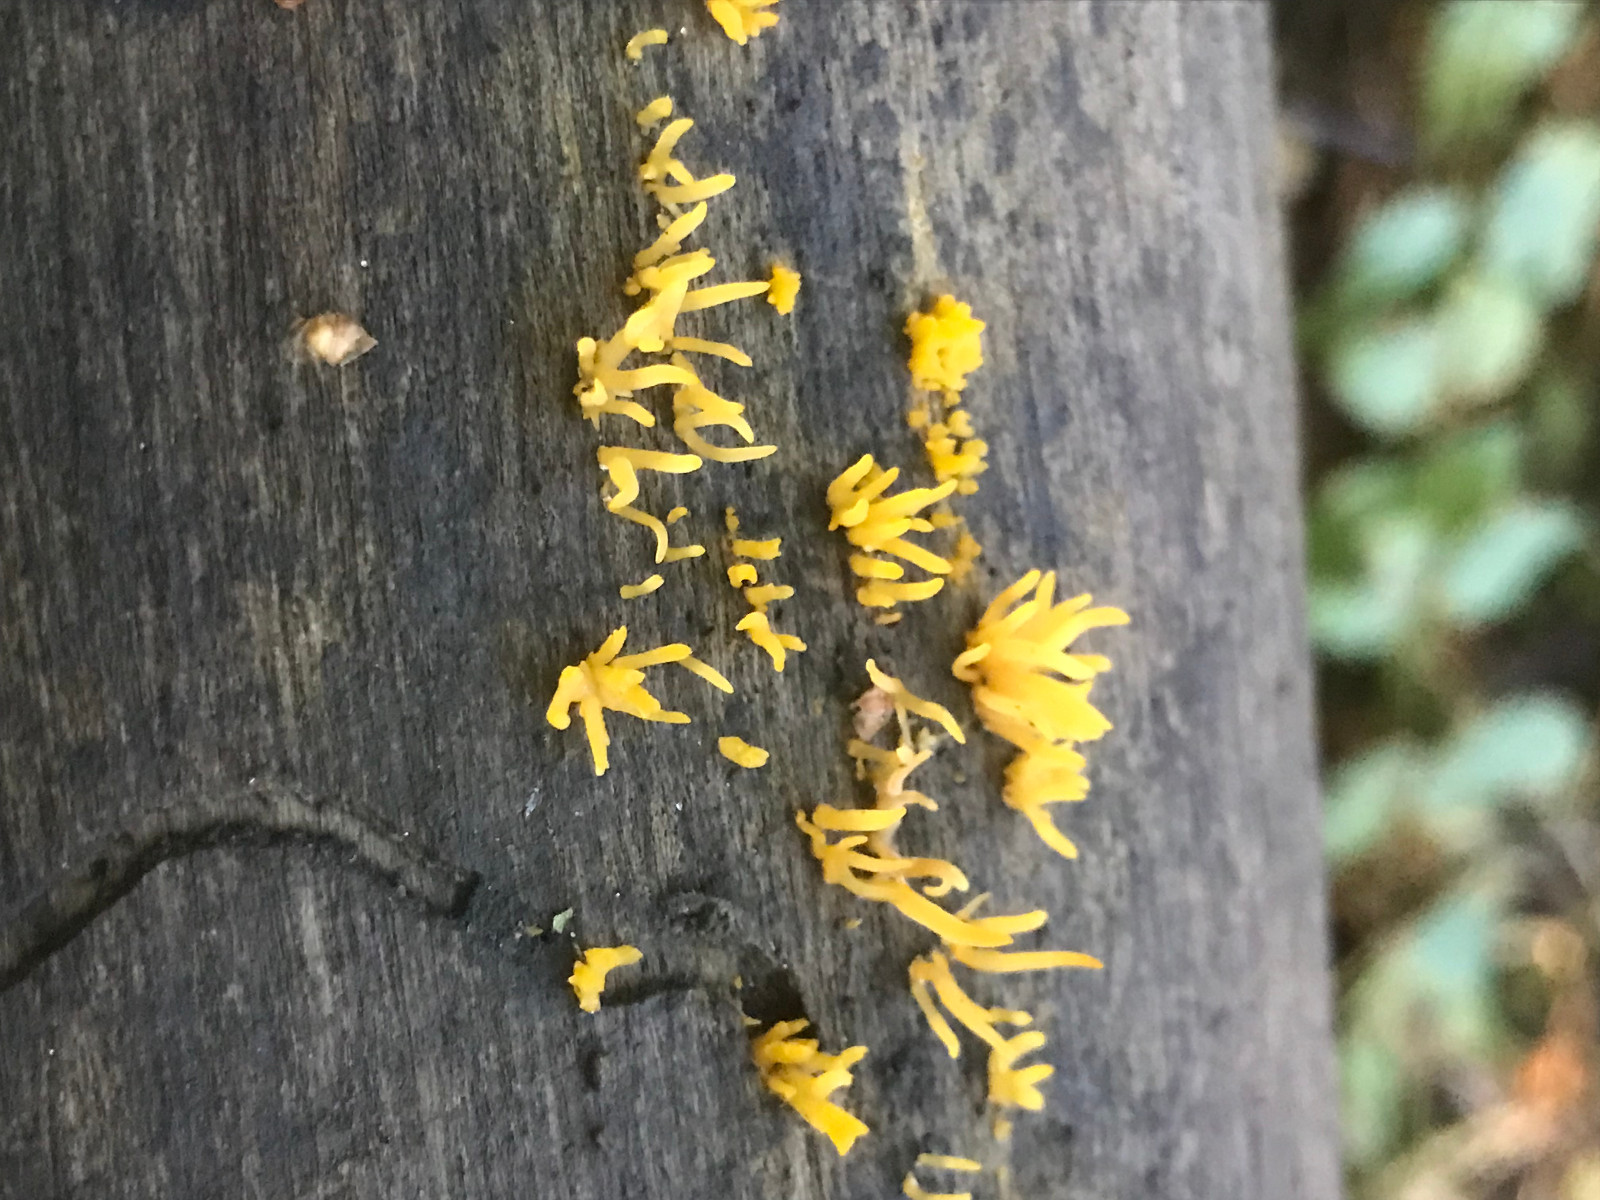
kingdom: Fungi
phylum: Basidiomycota
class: Dacrymycetes
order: Dacrymycetales
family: Dacrymycetaceae
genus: Calocera
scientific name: Calocera cornea
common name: liden guldgaffel
